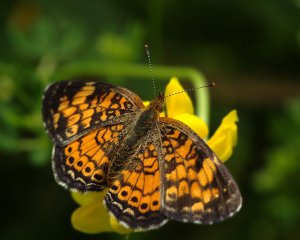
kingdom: Animalia
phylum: Arthropoda
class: Insecta
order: Lepidoptera
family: Nymphalidae
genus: Phyciodes
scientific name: Phyciodes tharos
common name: Pearl Crescent
